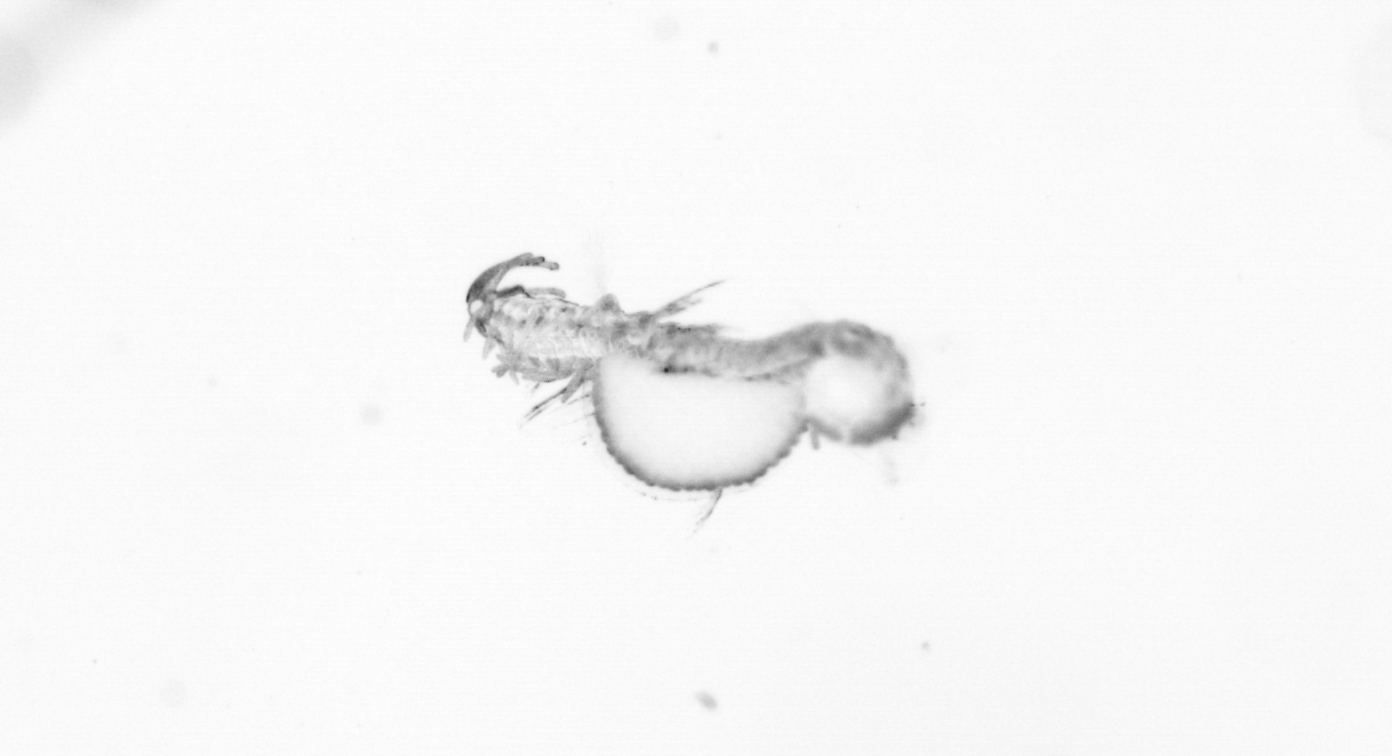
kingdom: Animalia
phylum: Annelida
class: Polychaeta
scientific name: Polychaeta
